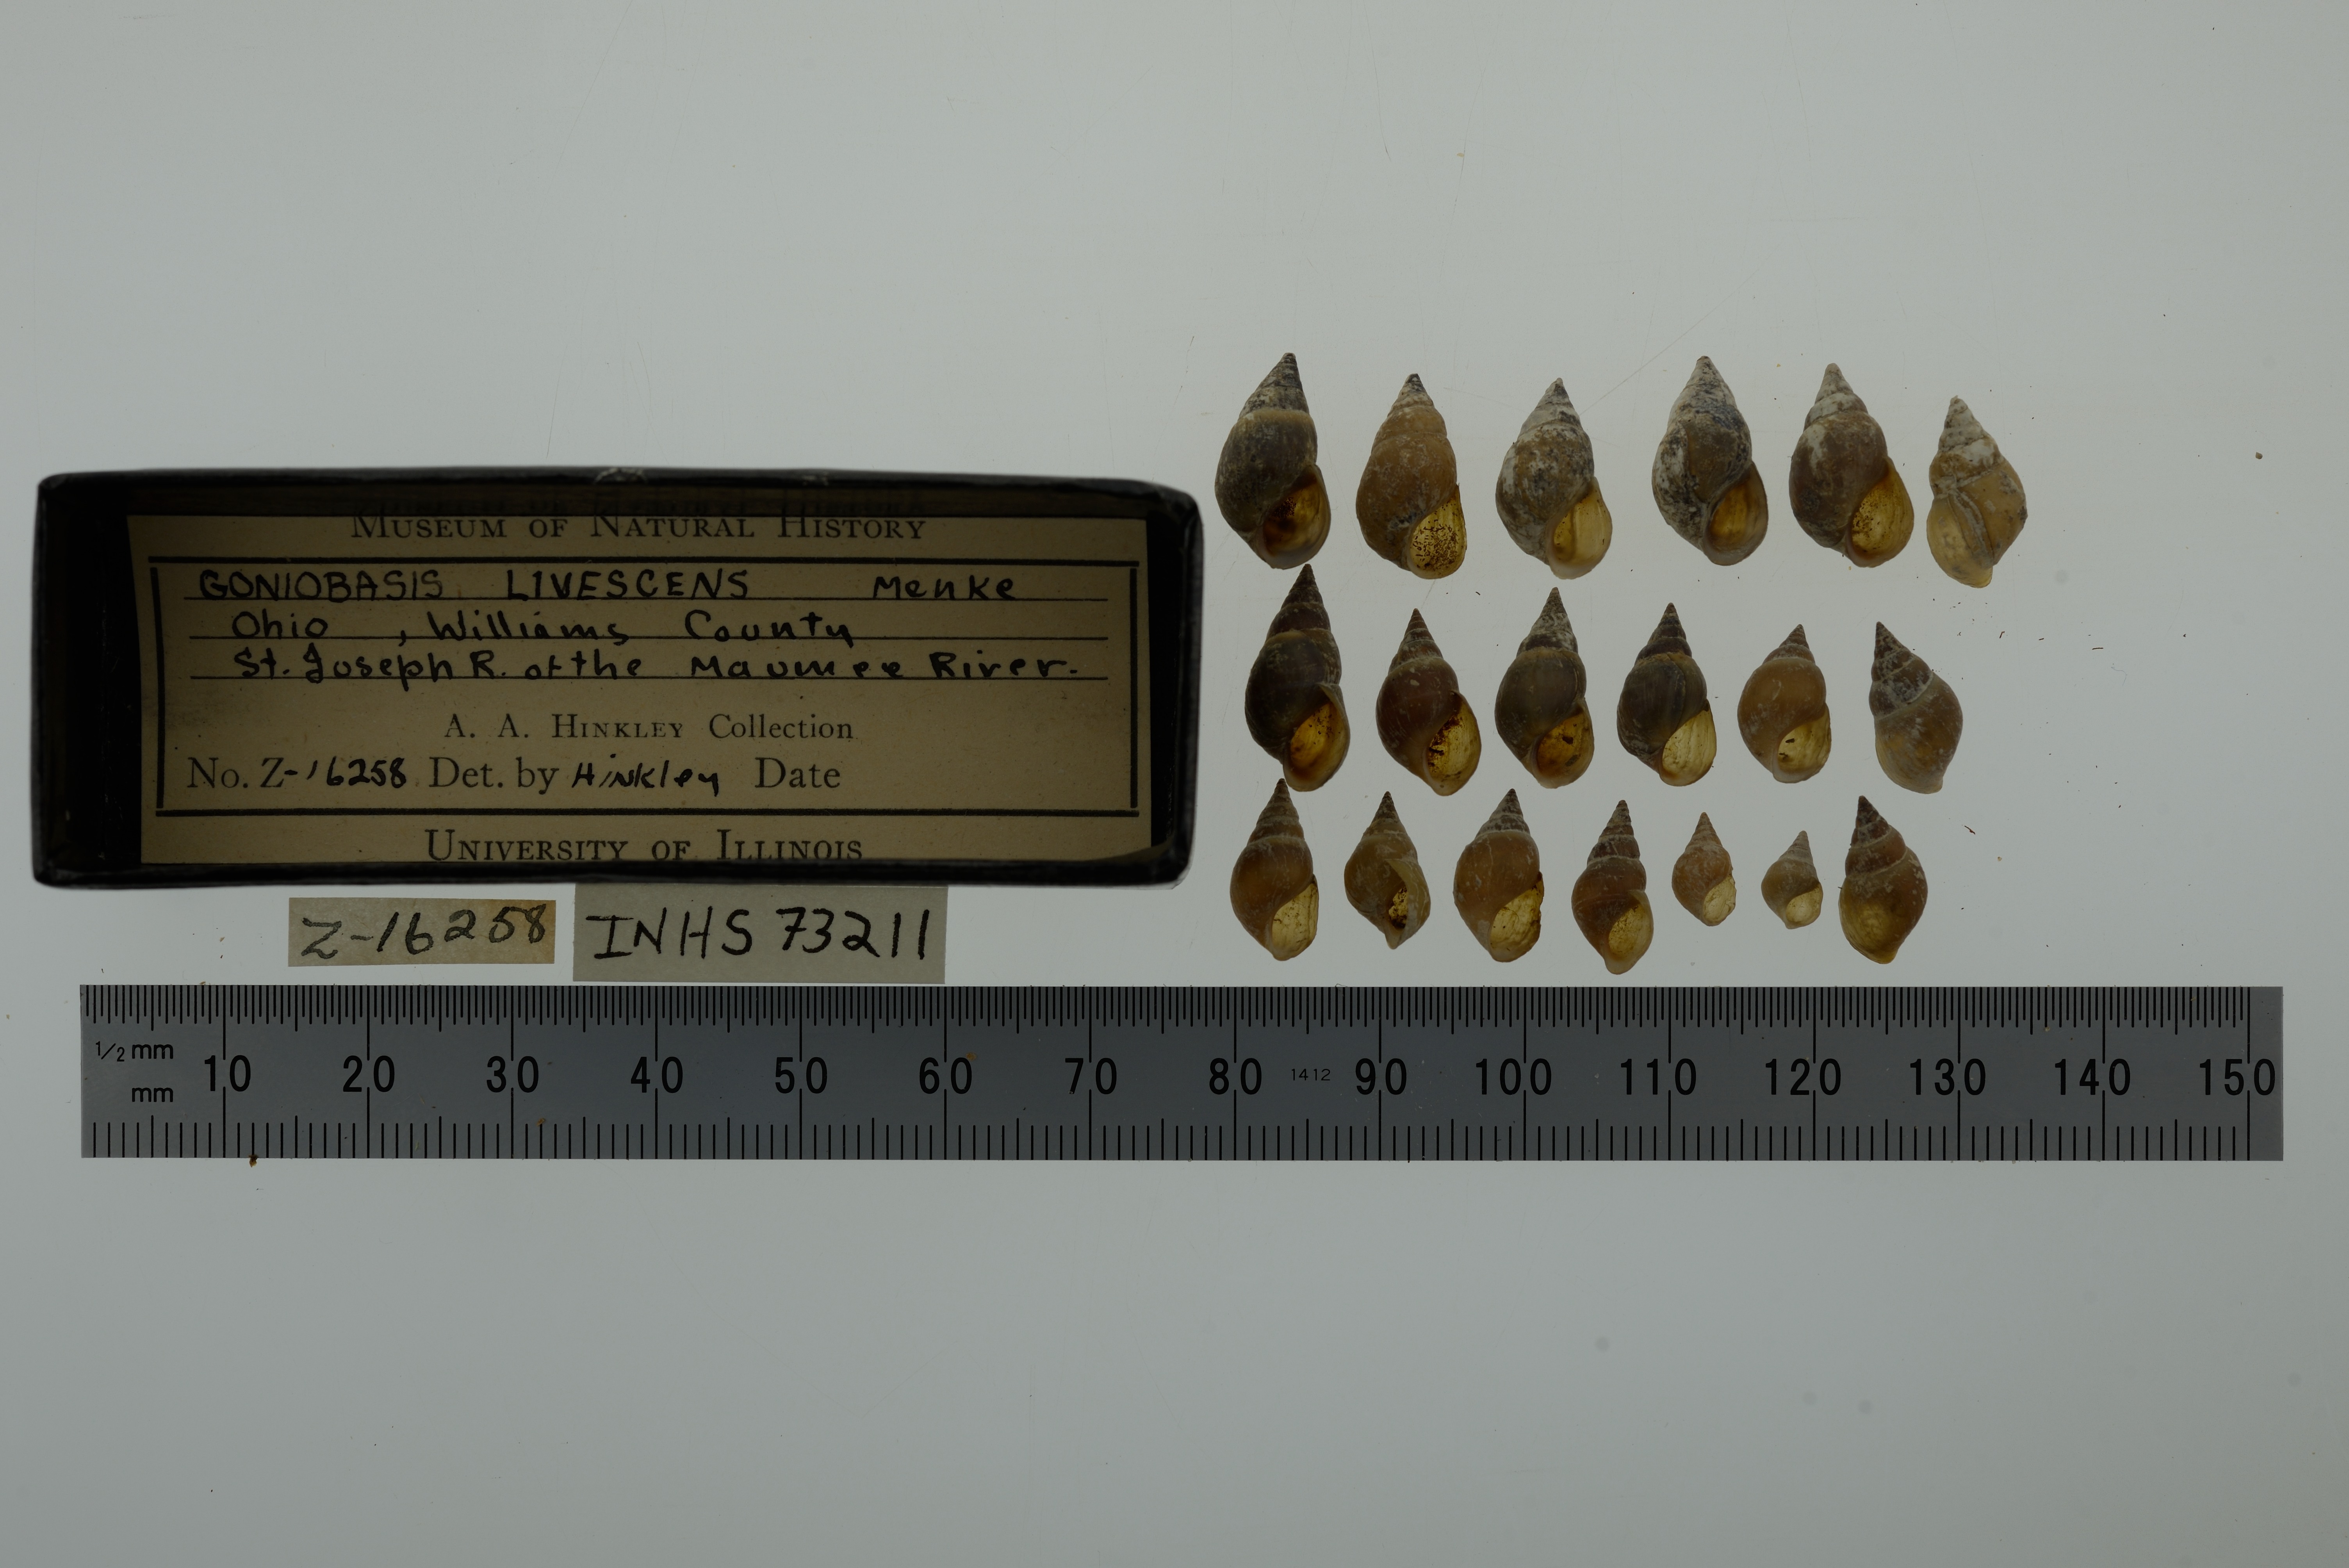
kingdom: Animalia
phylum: Mollusca
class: Gastropoda
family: Pleuroceridae
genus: Elimia
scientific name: Elimia livescens
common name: Liver elimia
